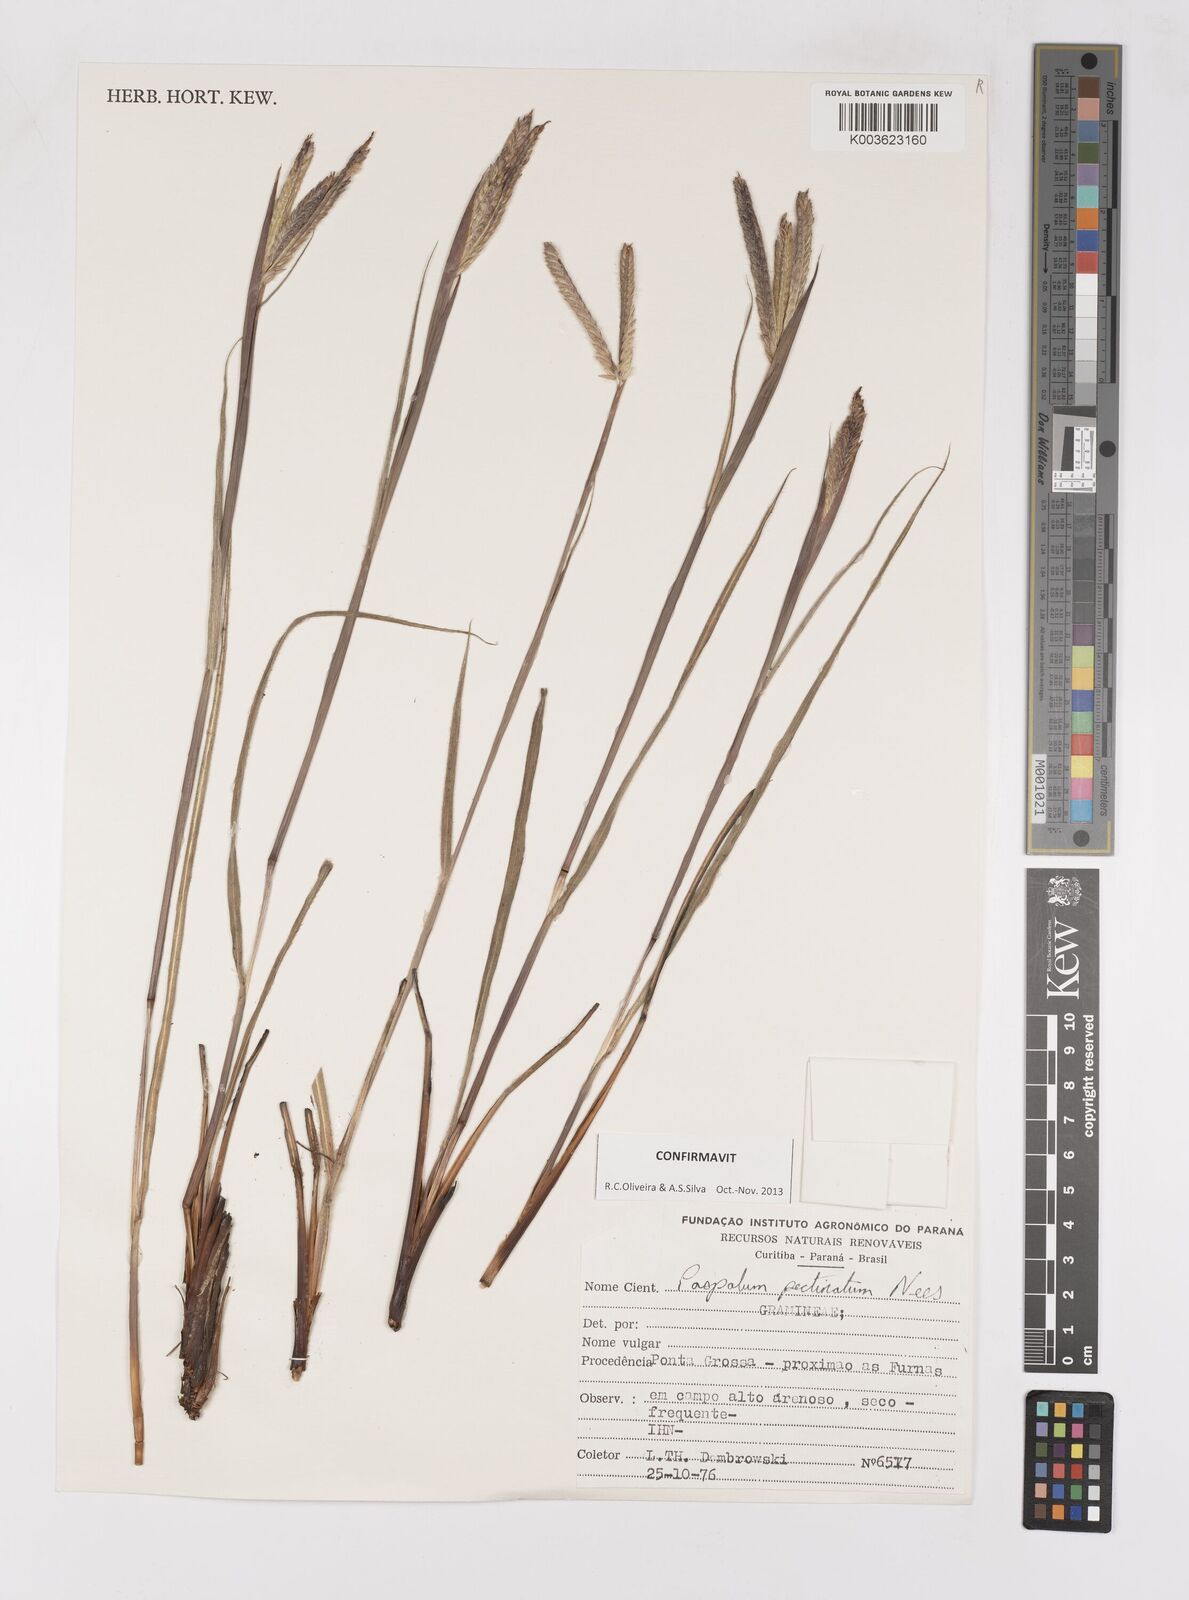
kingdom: Plantae
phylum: Tracheophyta
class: Liliopsida
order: Poales
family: Poaceae
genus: Paspalum
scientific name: Paspalum pectinatum
